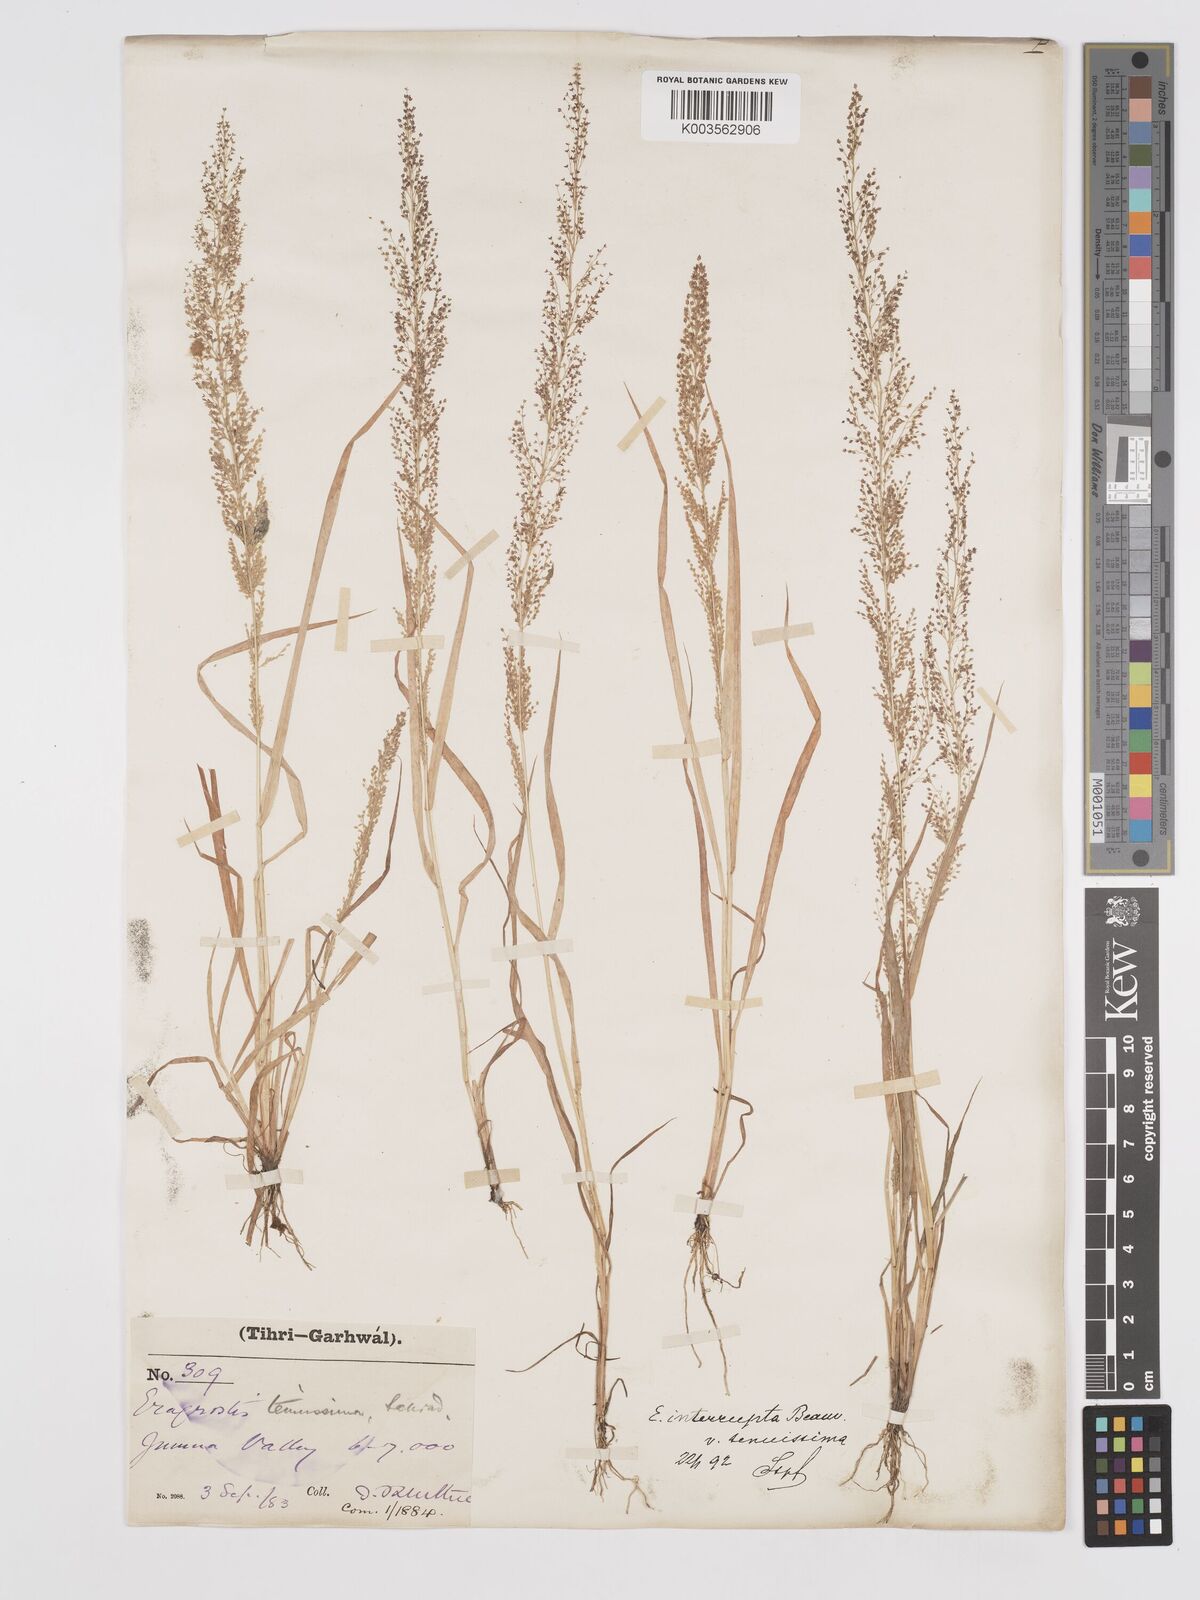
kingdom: Plantae
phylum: Tracheophyta
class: Liliopsida
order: Poales
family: Poaceae
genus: Eragrostis
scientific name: Eragrostis japonica
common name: Pond lovegrass
